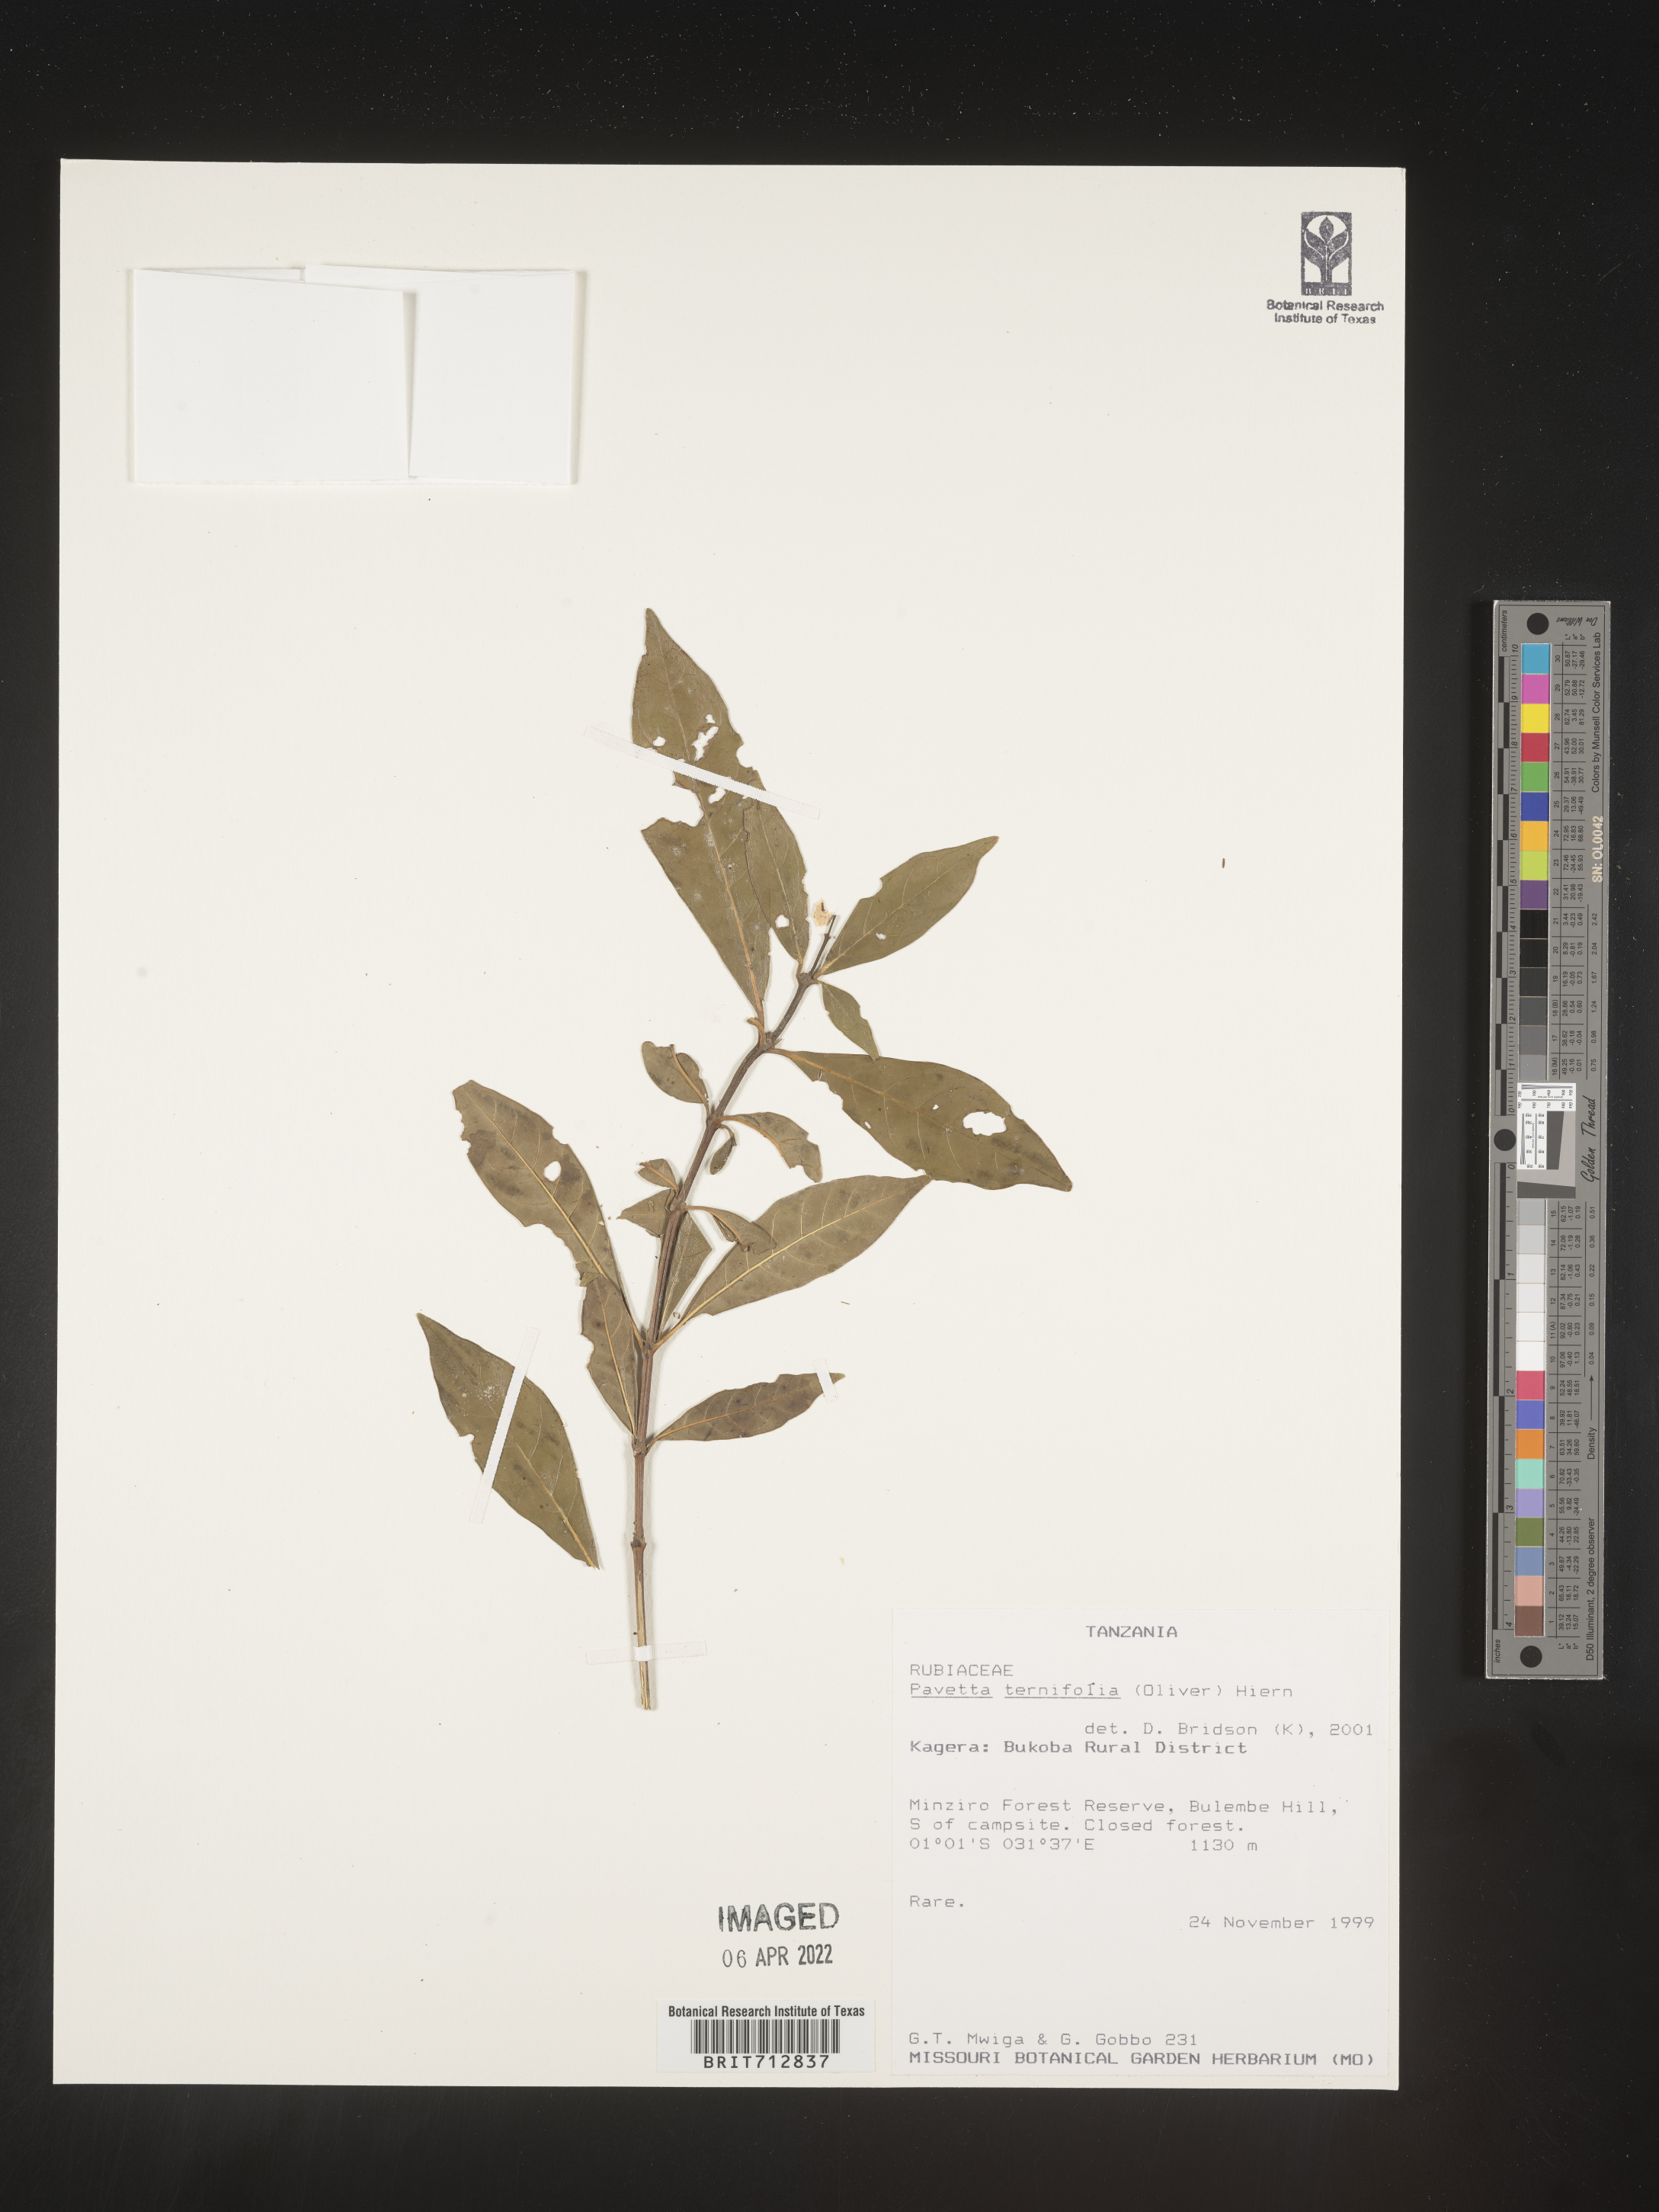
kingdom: Plantae
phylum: Tracheophyta
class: Magnoliopsida
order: Gentianales
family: Rubiaceae
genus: Pavetta
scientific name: Pavetta
